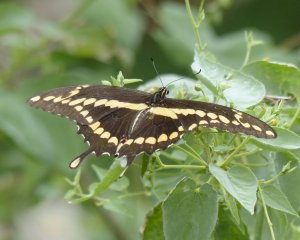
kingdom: Animalia
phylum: Arthropoda
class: Insecta
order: Lepidoptera
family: Papilionidae
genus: Papilio
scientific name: Papilio rumiko
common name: Western Giant Swallowtail
